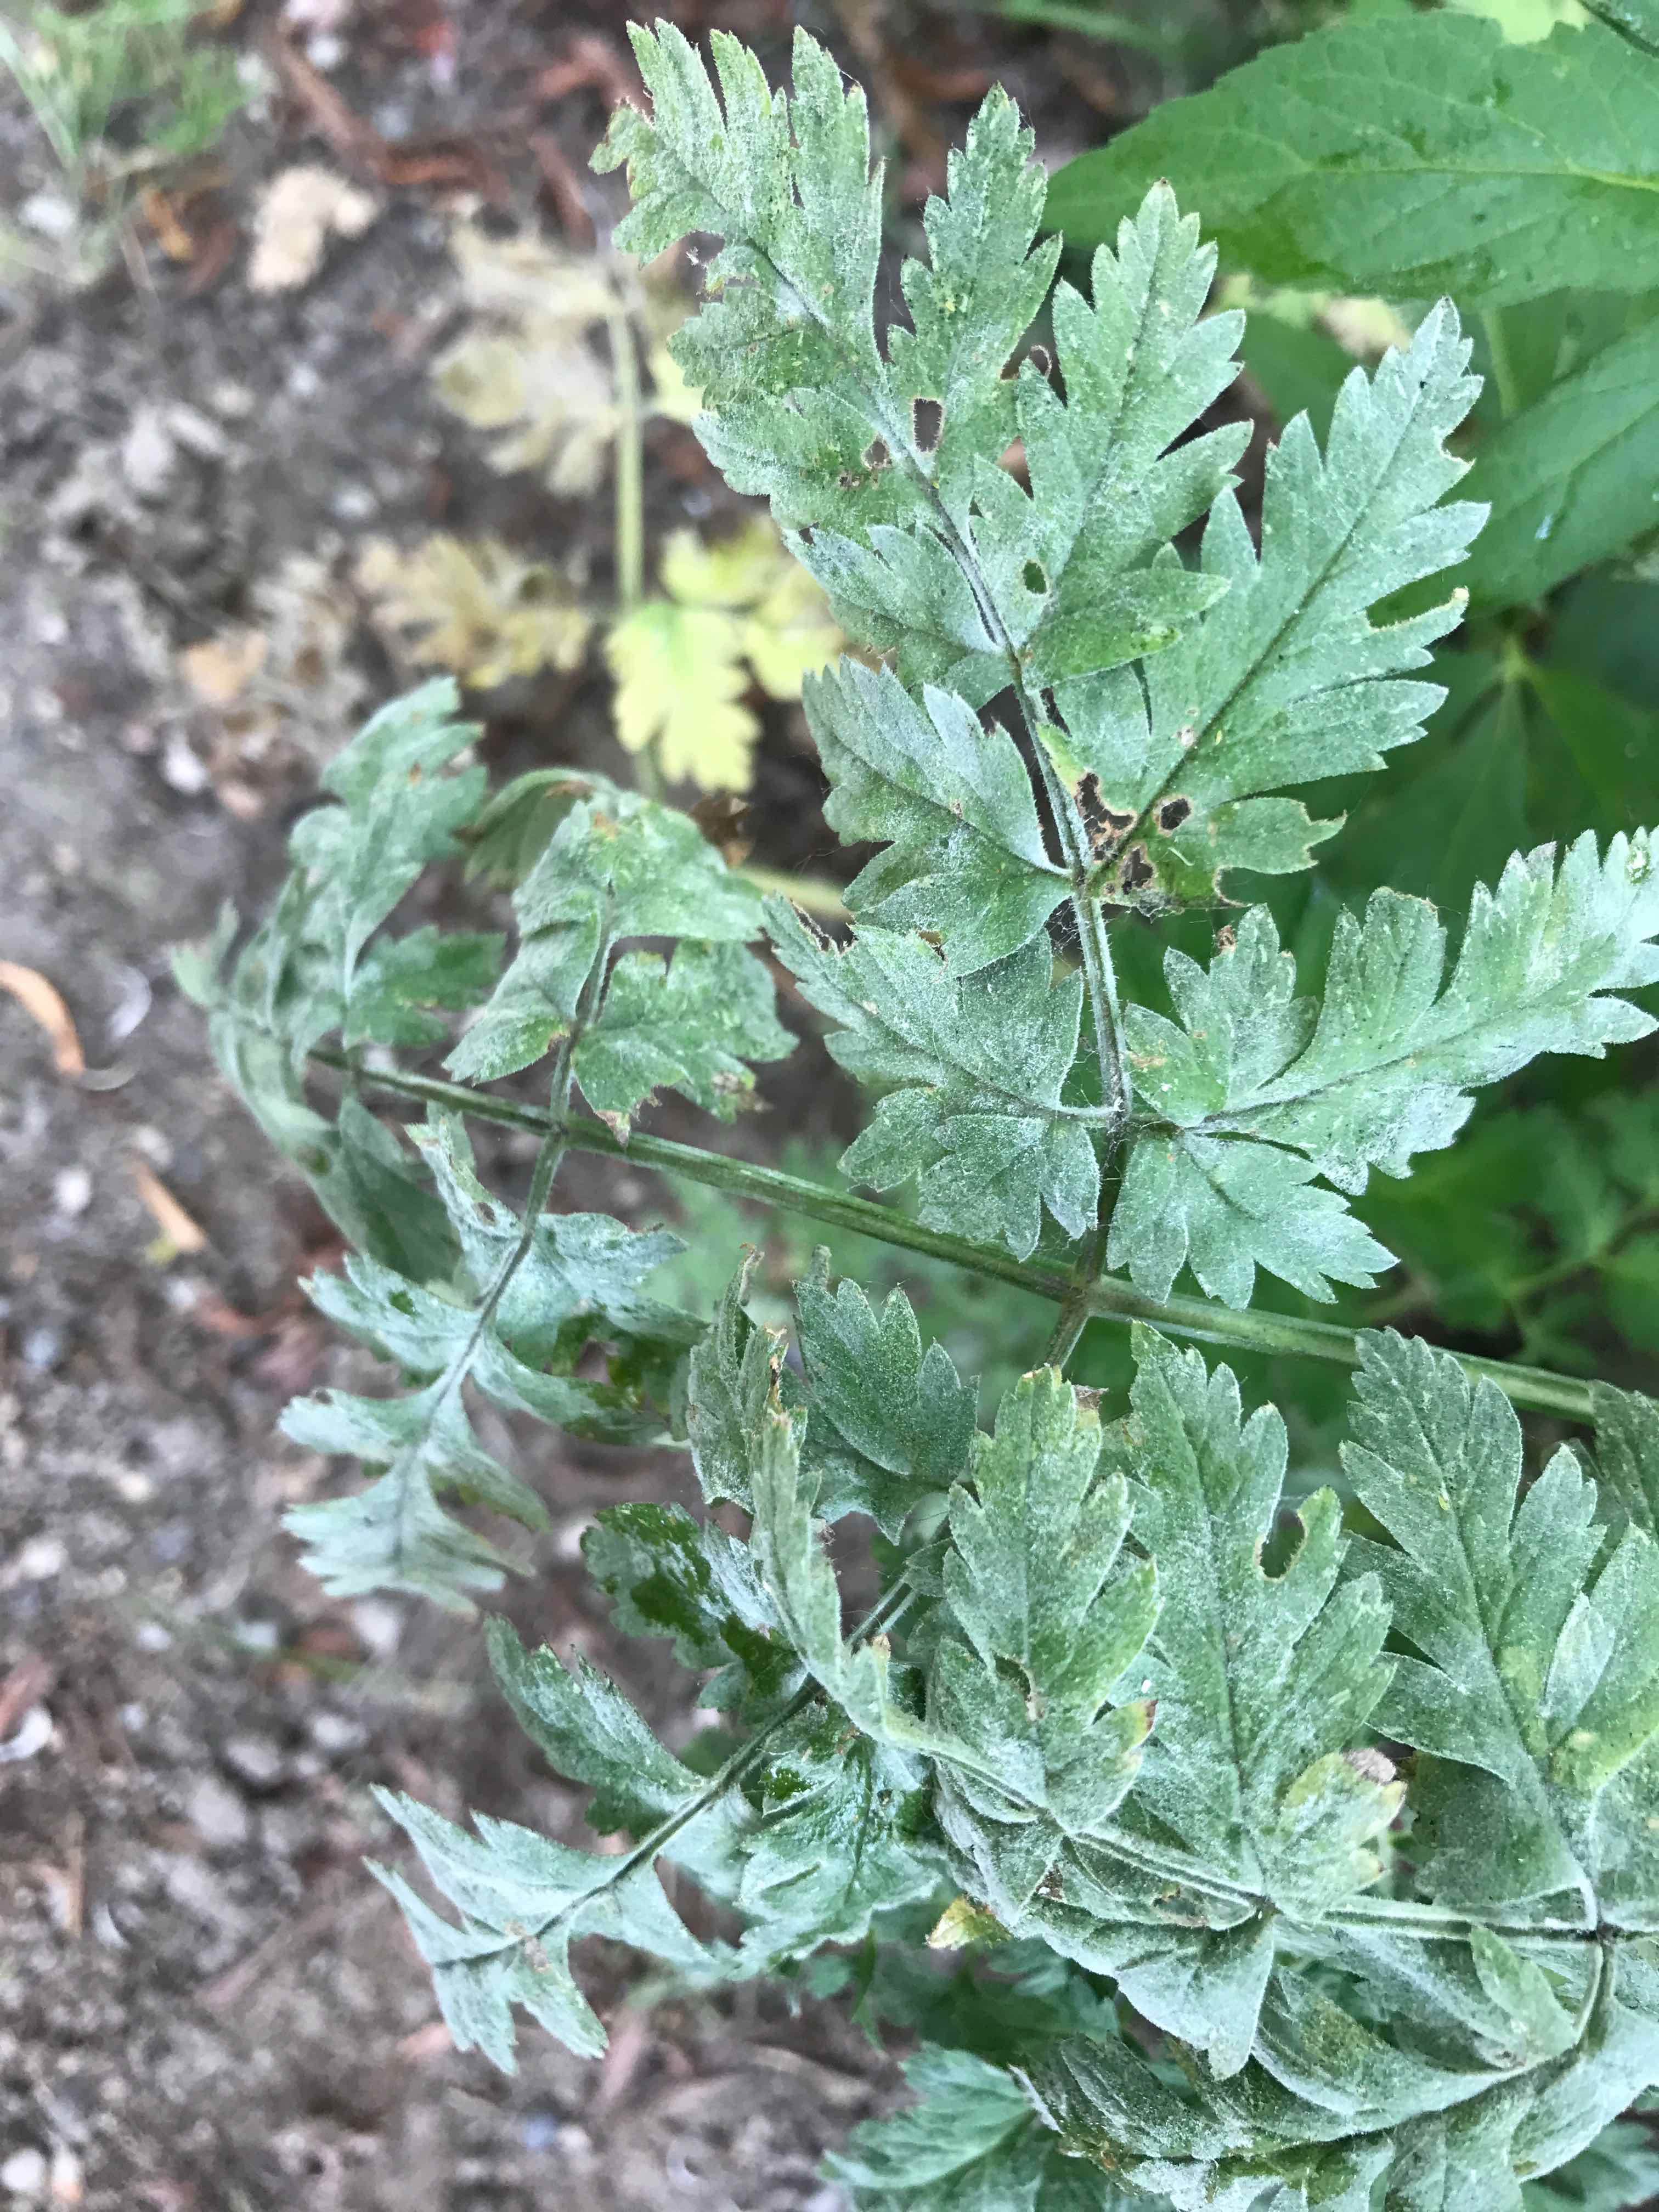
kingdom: Fungi
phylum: Ascomycota
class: Leotiomycetes
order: Helotiales
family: Erysiphaceae
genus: Erysiphe
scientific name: Erysiphe heraclei
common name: skærmplante-meldug
